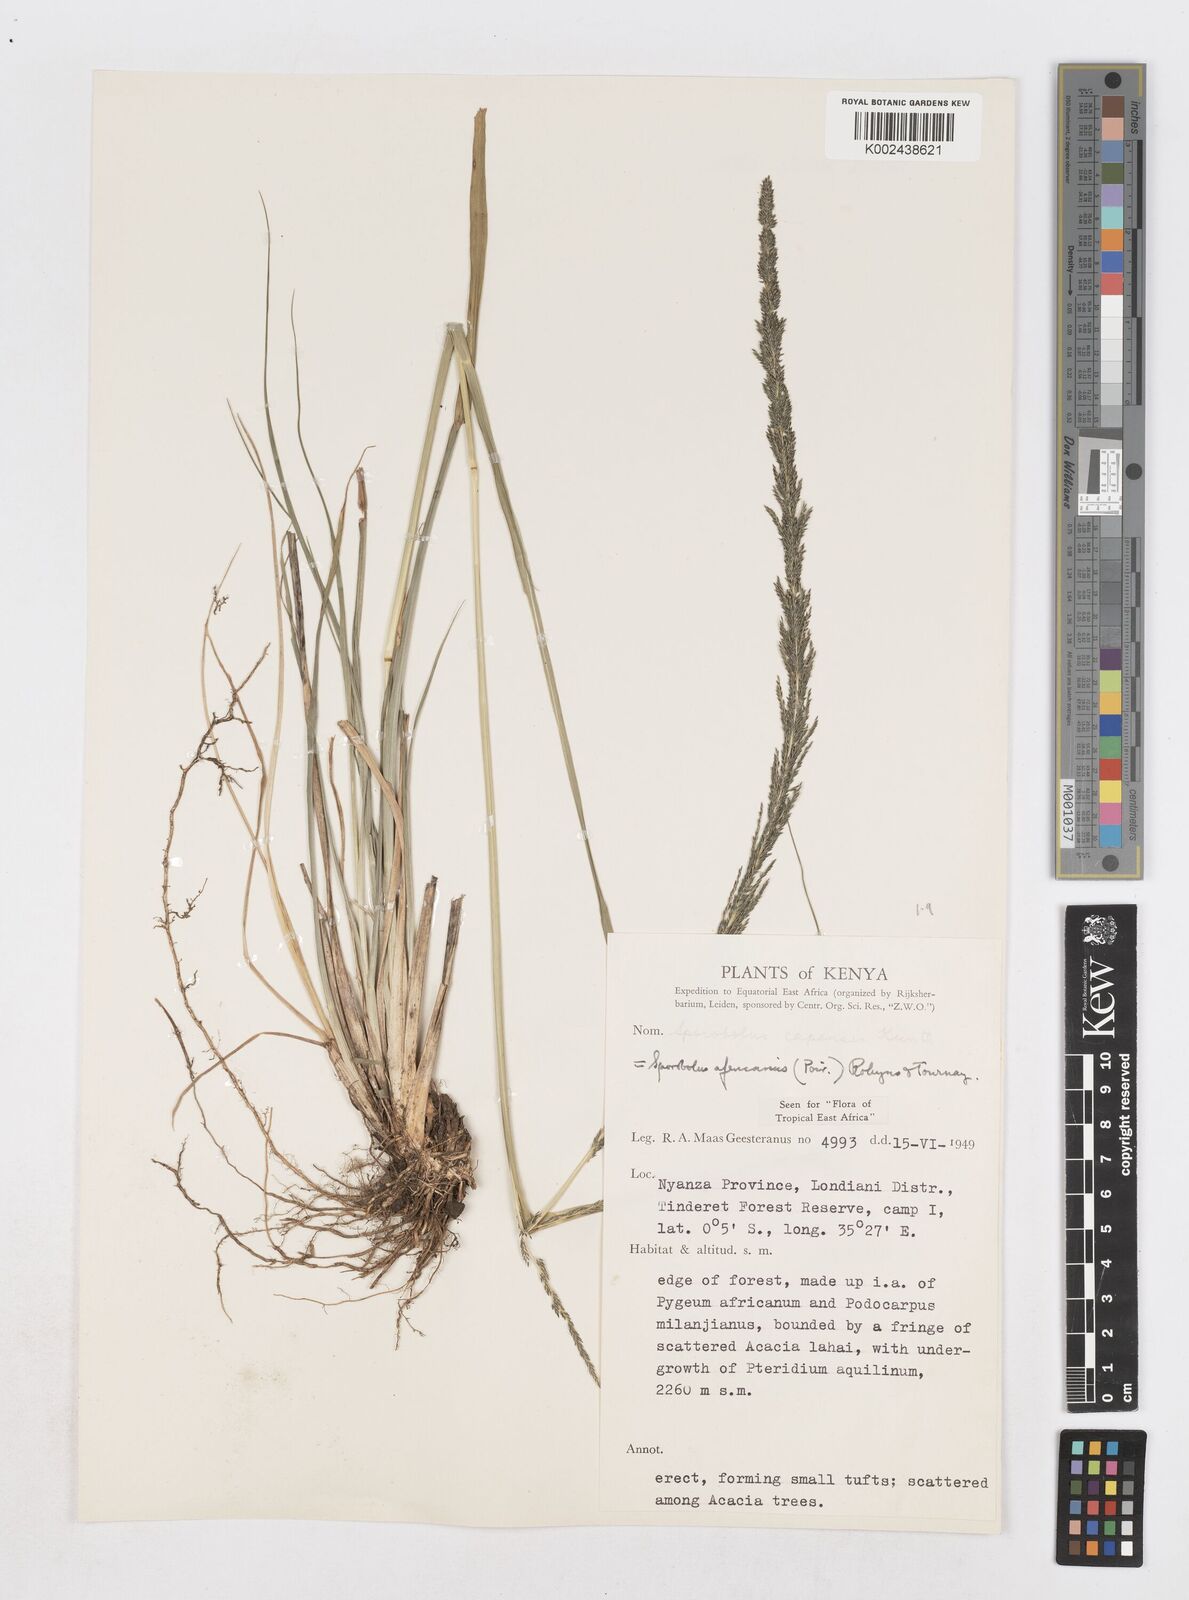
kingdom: Plantae
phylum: Tracheophyta
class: Liliopsida
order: Poales
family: Poaceae
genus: Sporobolus
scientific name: Sporobolus africanus
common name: African dropseed
